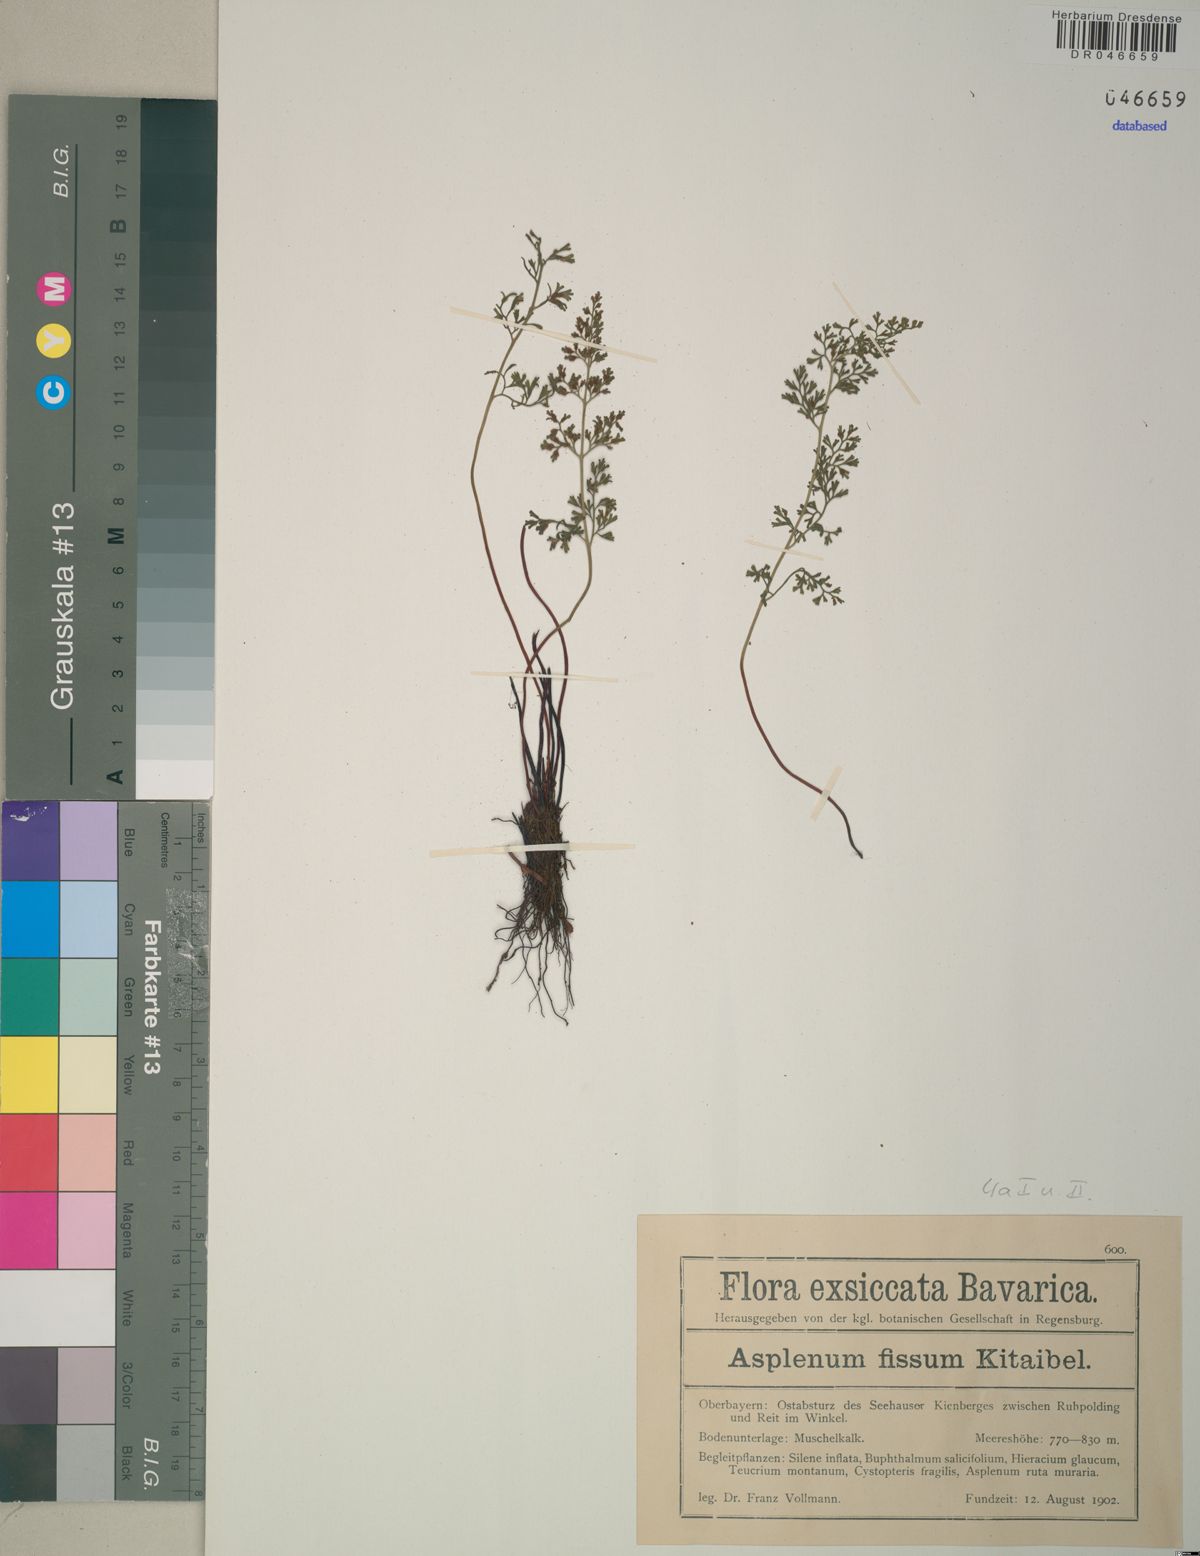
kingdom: Plantae
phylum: Tracheophyta
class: Polypodiopsida
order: Polypodiales
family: Aspleniaceae
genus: Asplenium
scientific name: Asplenium fissum
